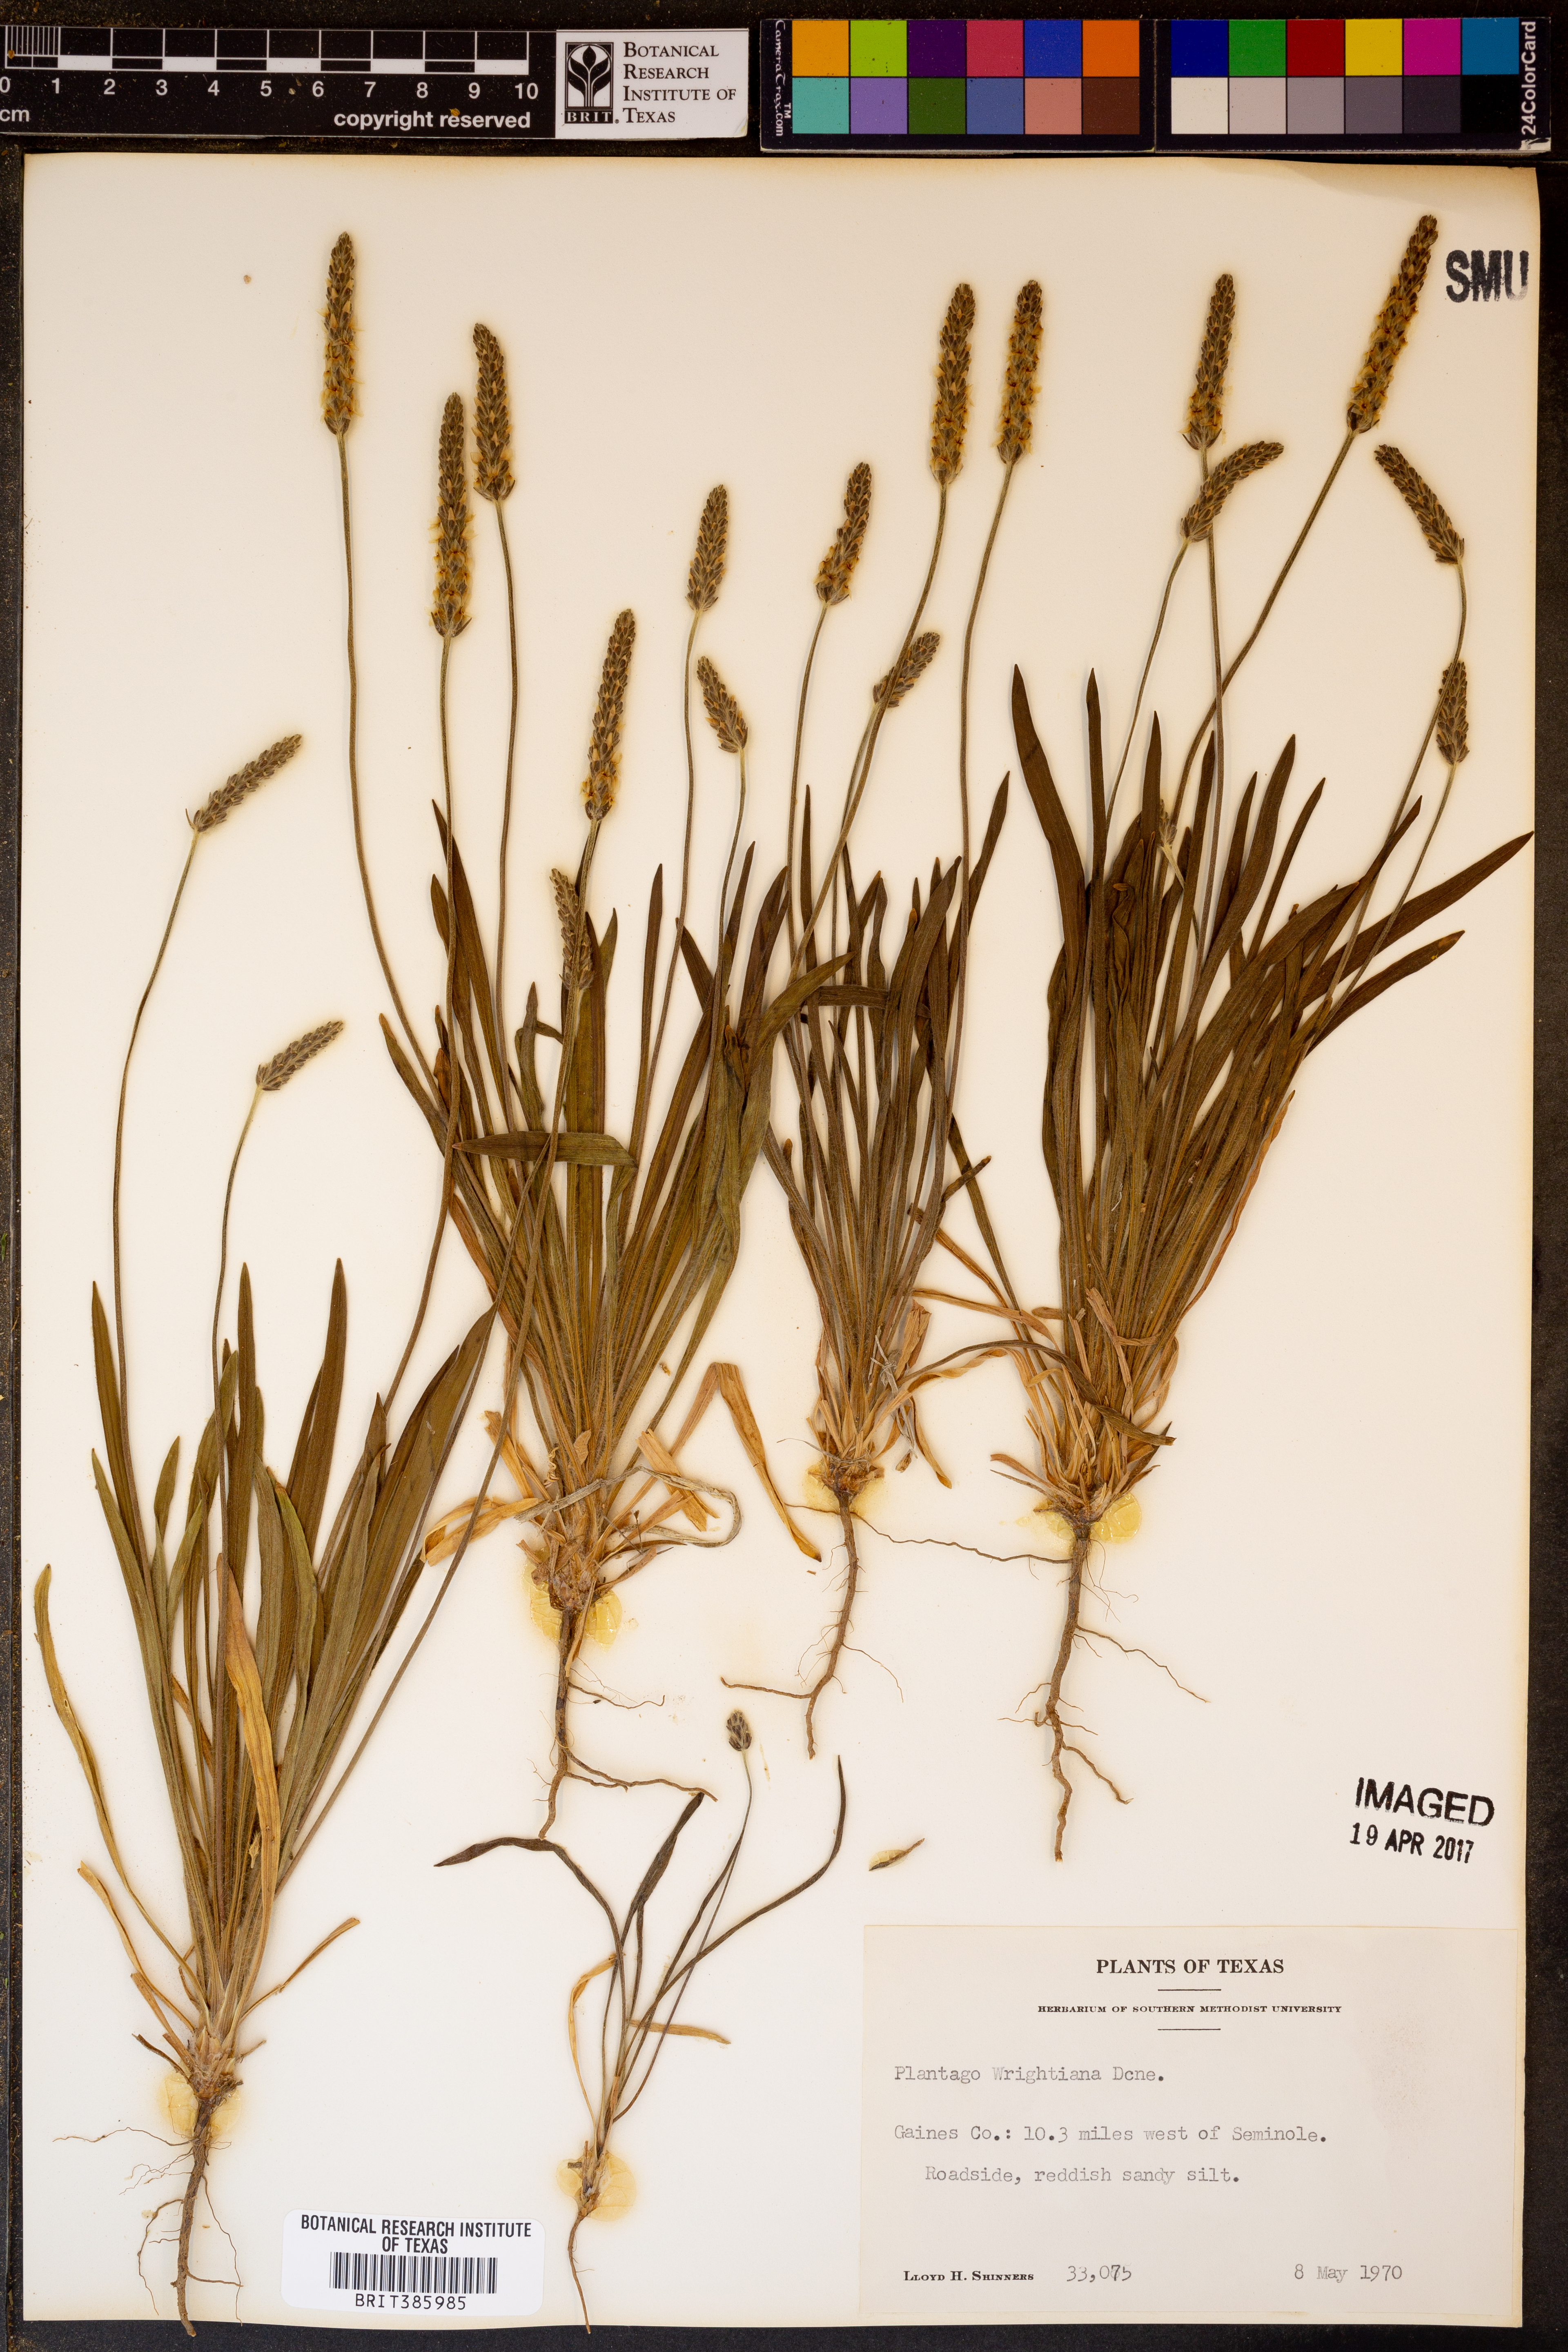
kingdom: Plantae
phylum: Tracheophyta
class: Magnoliopsida
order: Lamiales
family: Plantaginaceae
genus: Plantago
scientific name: Plantago wrightiana
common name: Wright's plantain
